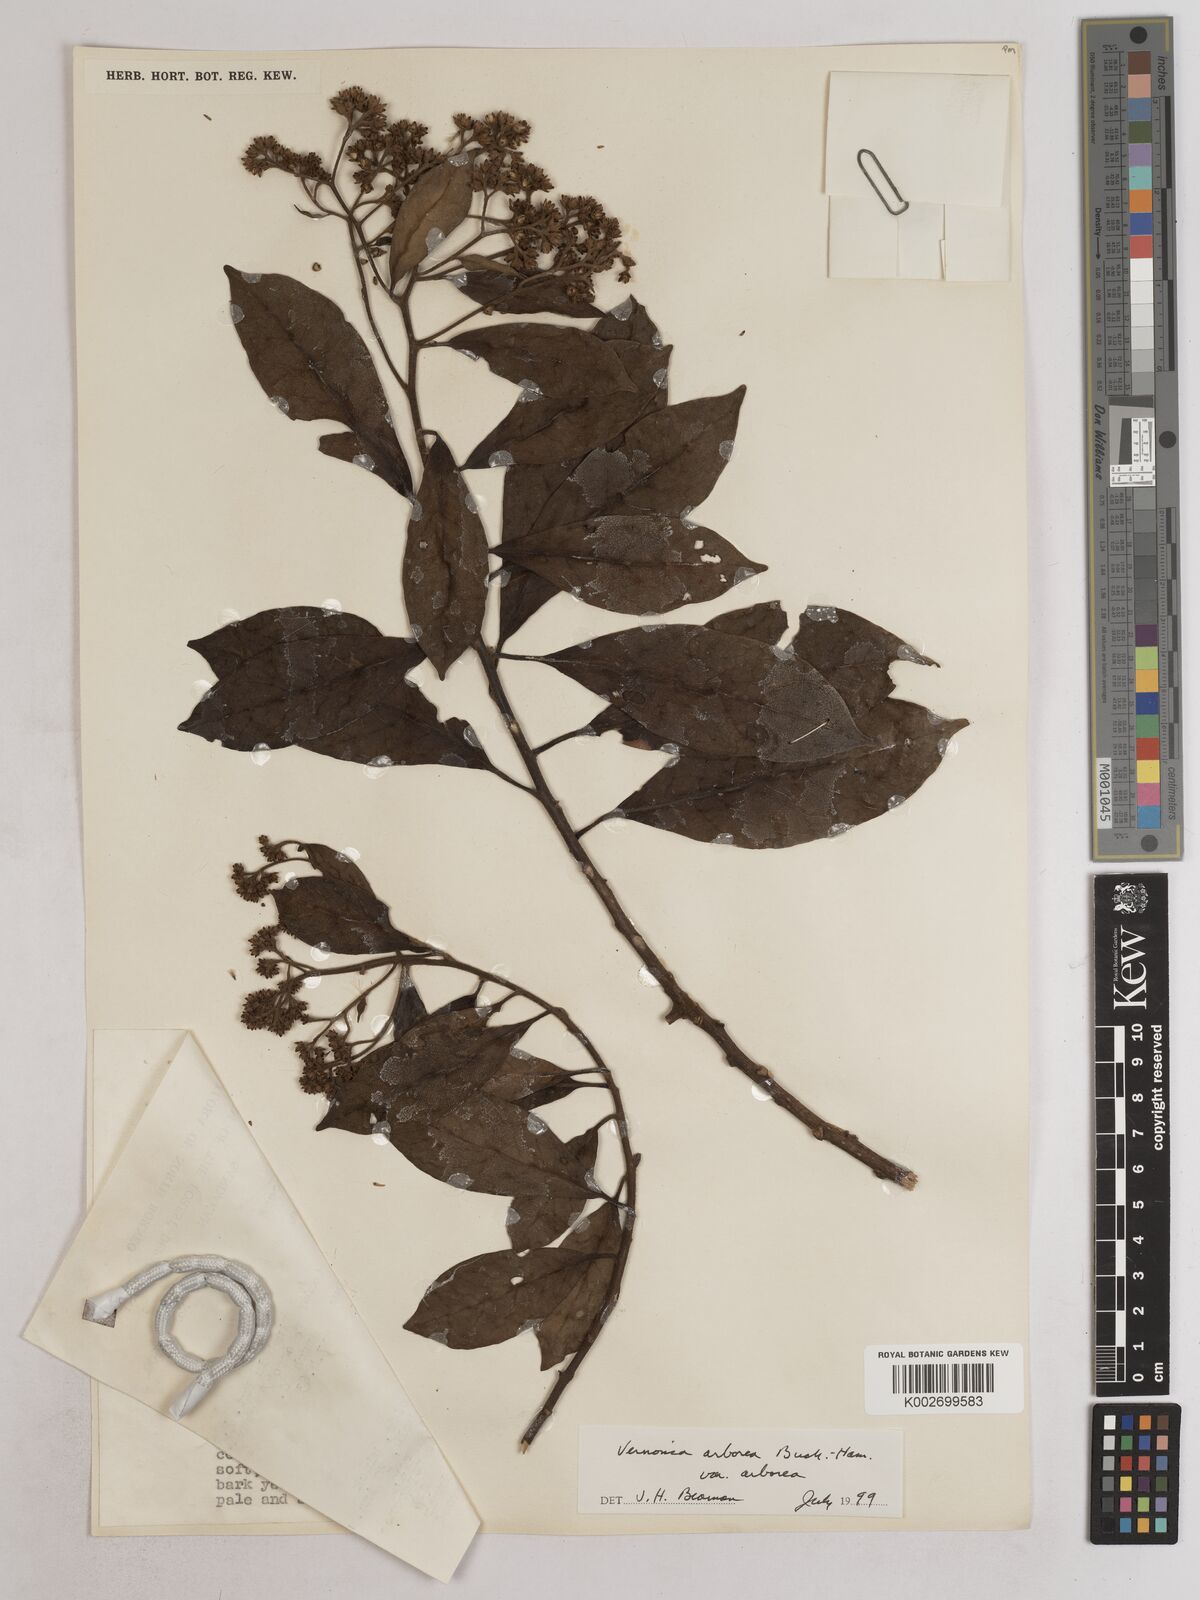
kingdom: Plantae
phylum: Tracheophyta
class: Magnoliopsida
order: Asterales
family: Asteraceae
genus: Strobocalyx
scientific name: Strobocalyx arborea
